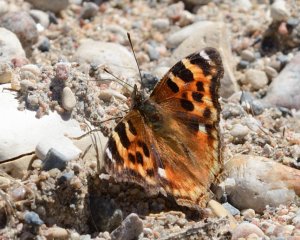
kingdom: Animalia
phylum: Arthropoda
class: Insecta
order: Lepidoptera
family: Nymphalidae
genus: Polygonia
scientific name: Polygonia vaualbum
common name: Compton Tortoiseshell
